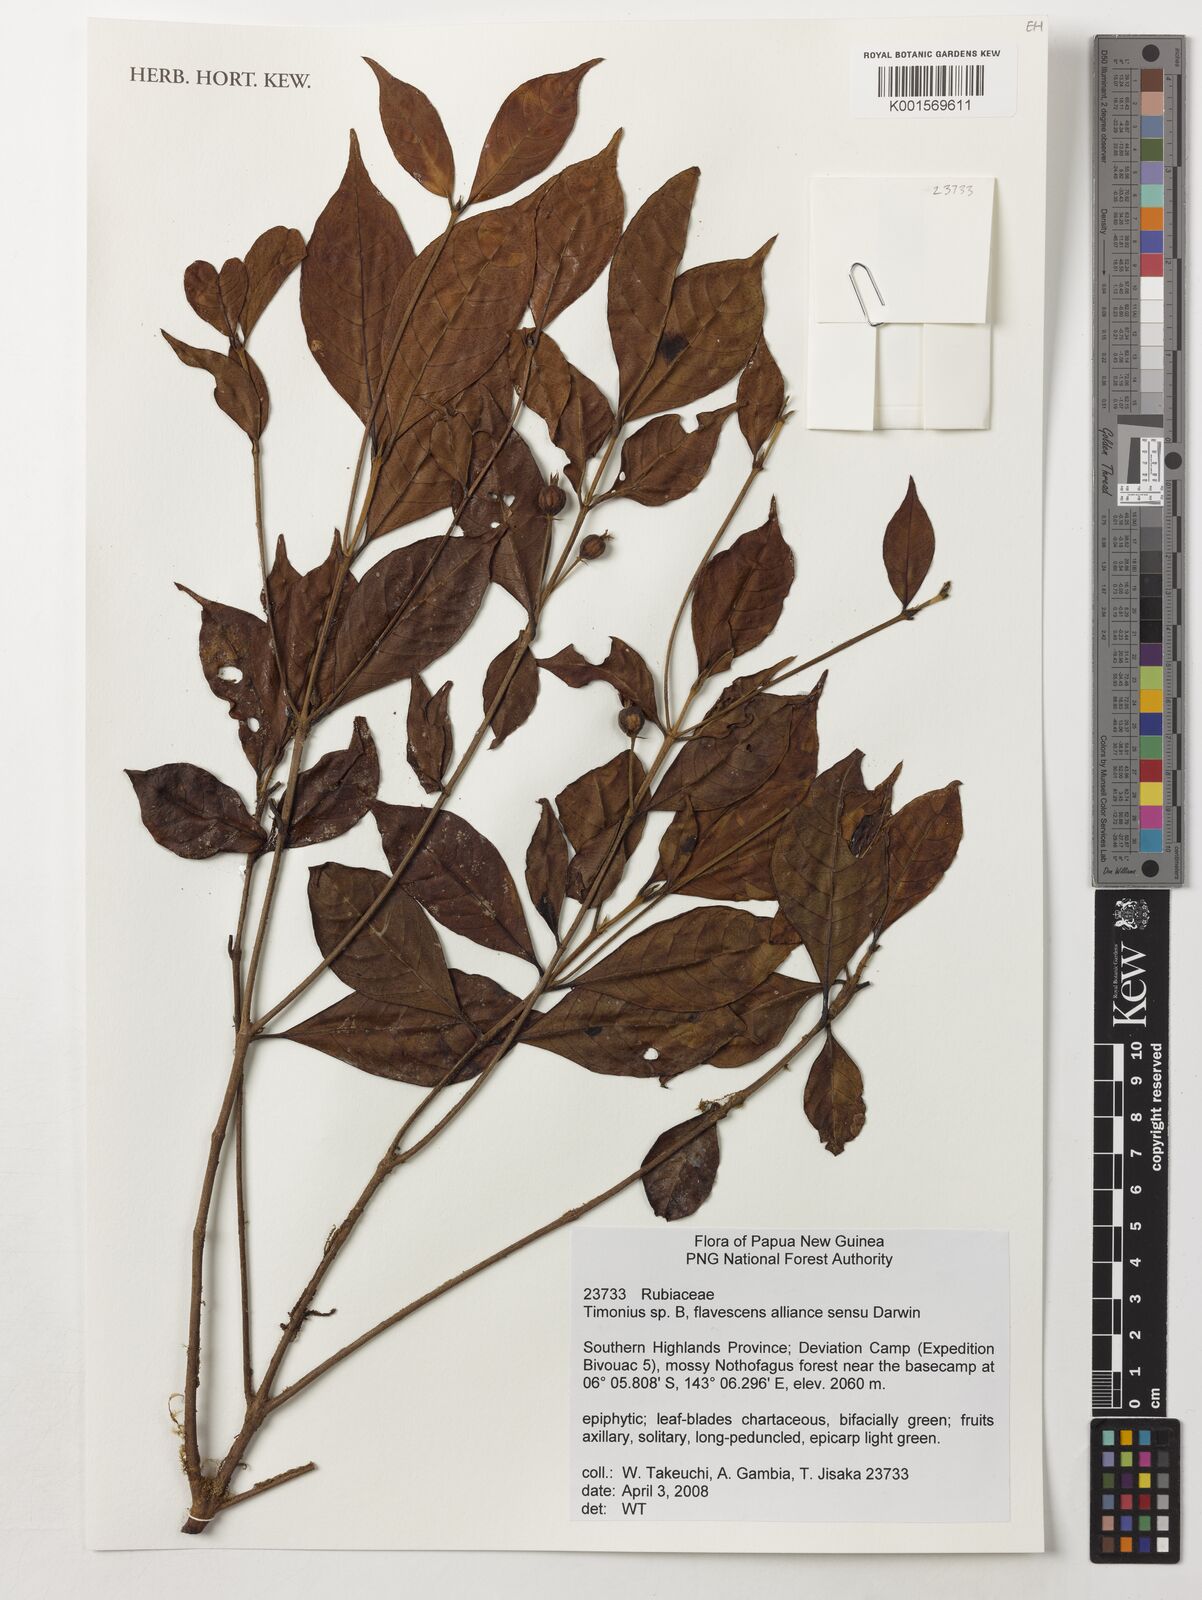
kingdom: Plantae
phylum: Tracheophyta
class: Magnoliopsida
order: Gentianales
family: Rubiaceae
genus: Timonius
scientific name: Timonius
